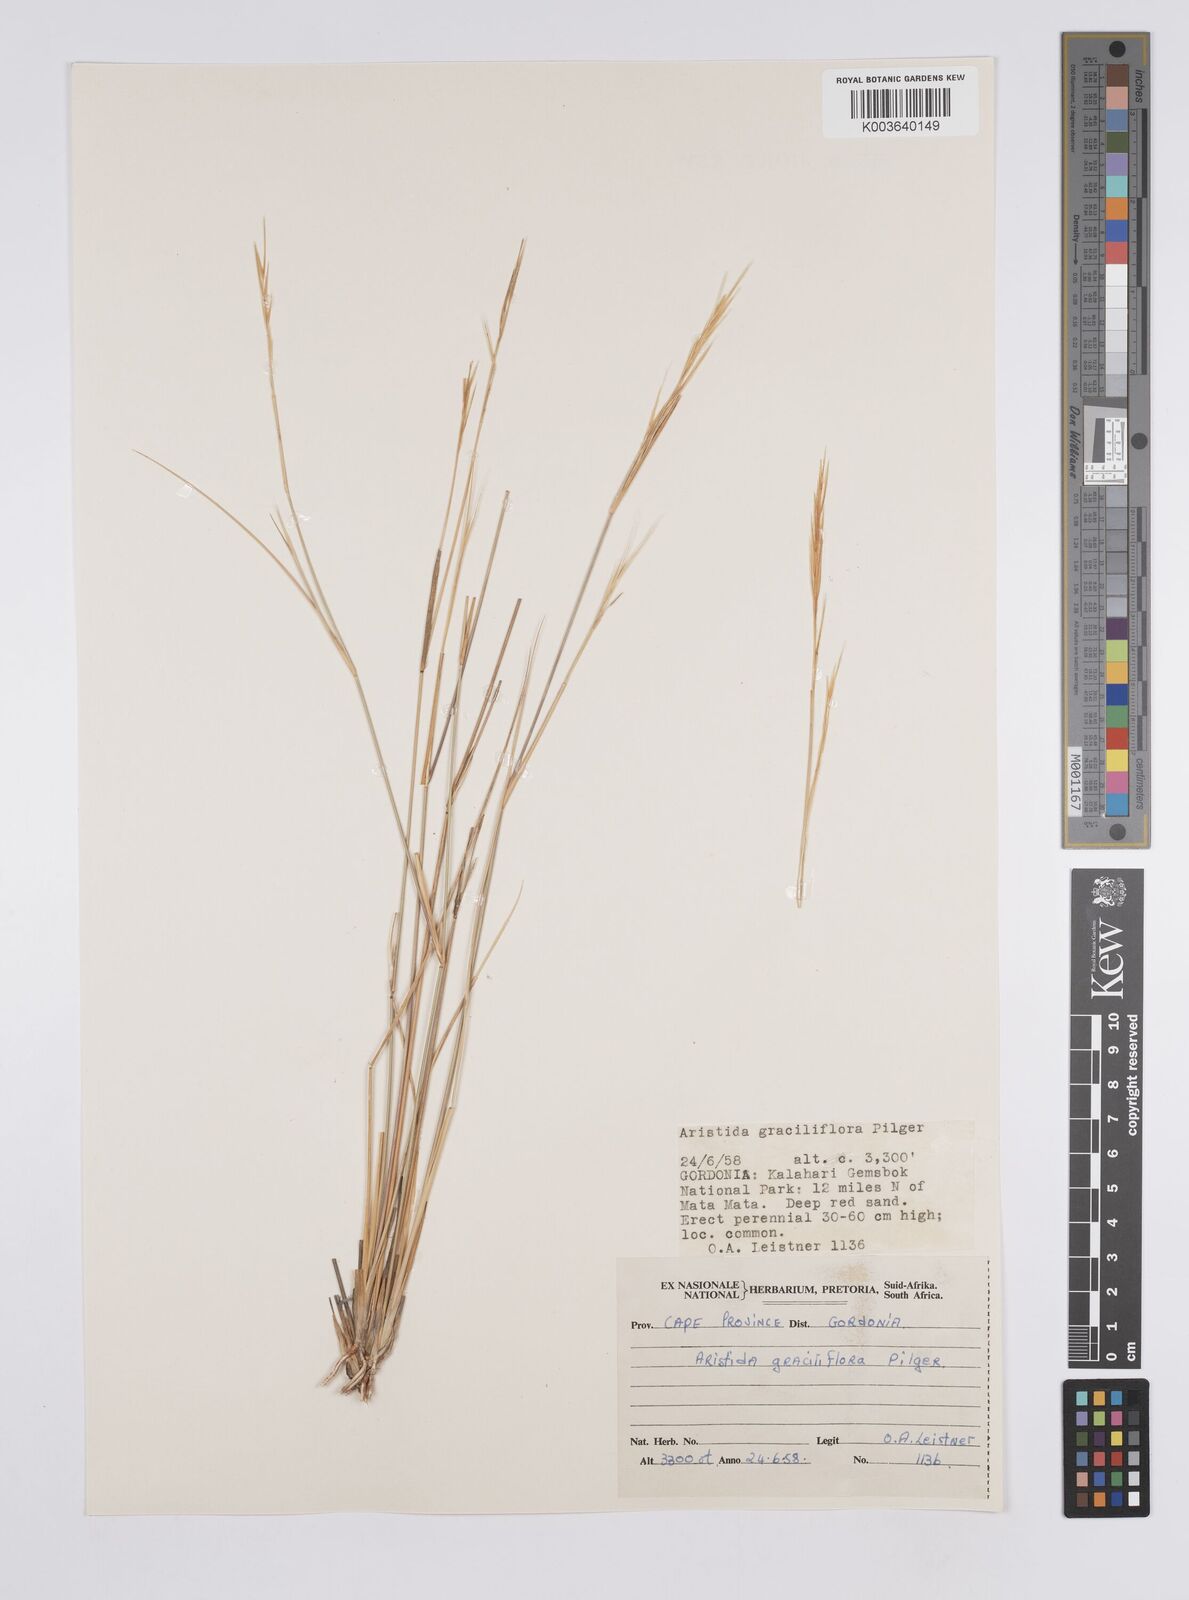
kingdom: Plantae
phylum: Tracheophyta
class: Liliopsida
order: Poales
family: Poaceae
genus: Aristida
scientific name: Aristida stipitata
